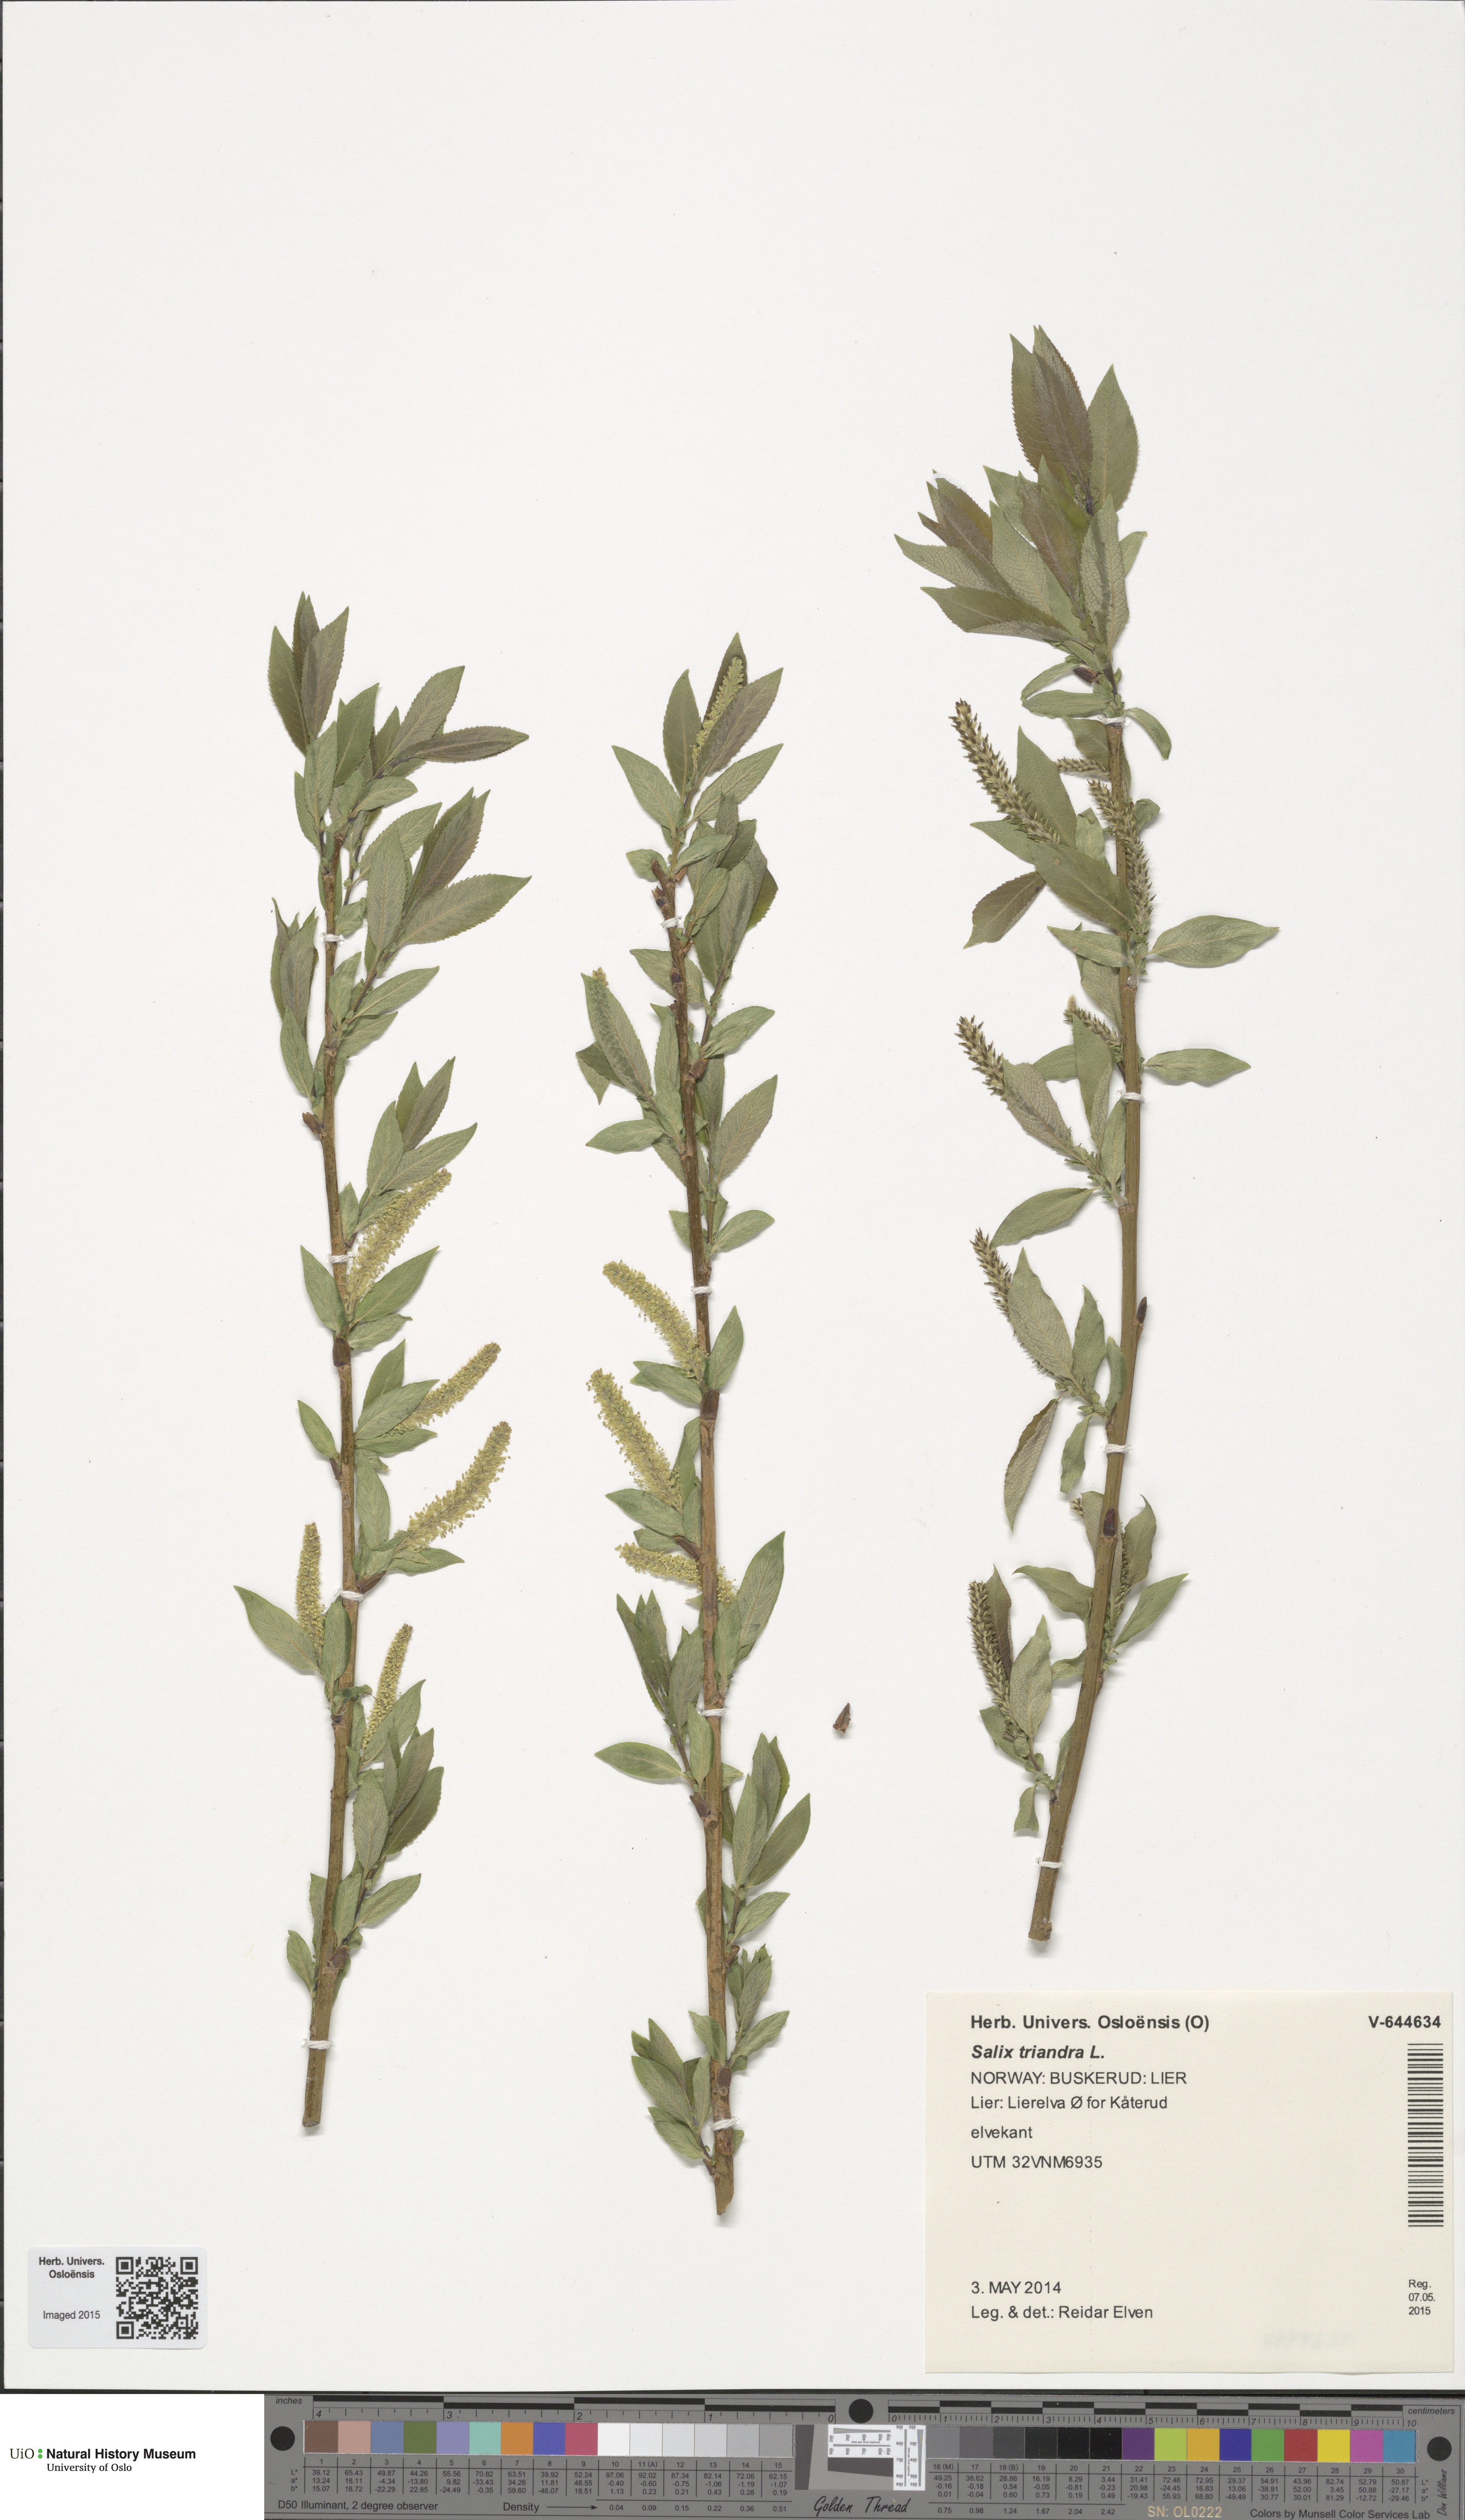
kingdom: Plantae
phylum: Tracheophyta
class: Magnoliopsida
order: Malpighiales
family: Salicaceae
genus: Salix
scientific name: Salix triandra
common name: Almond willow
